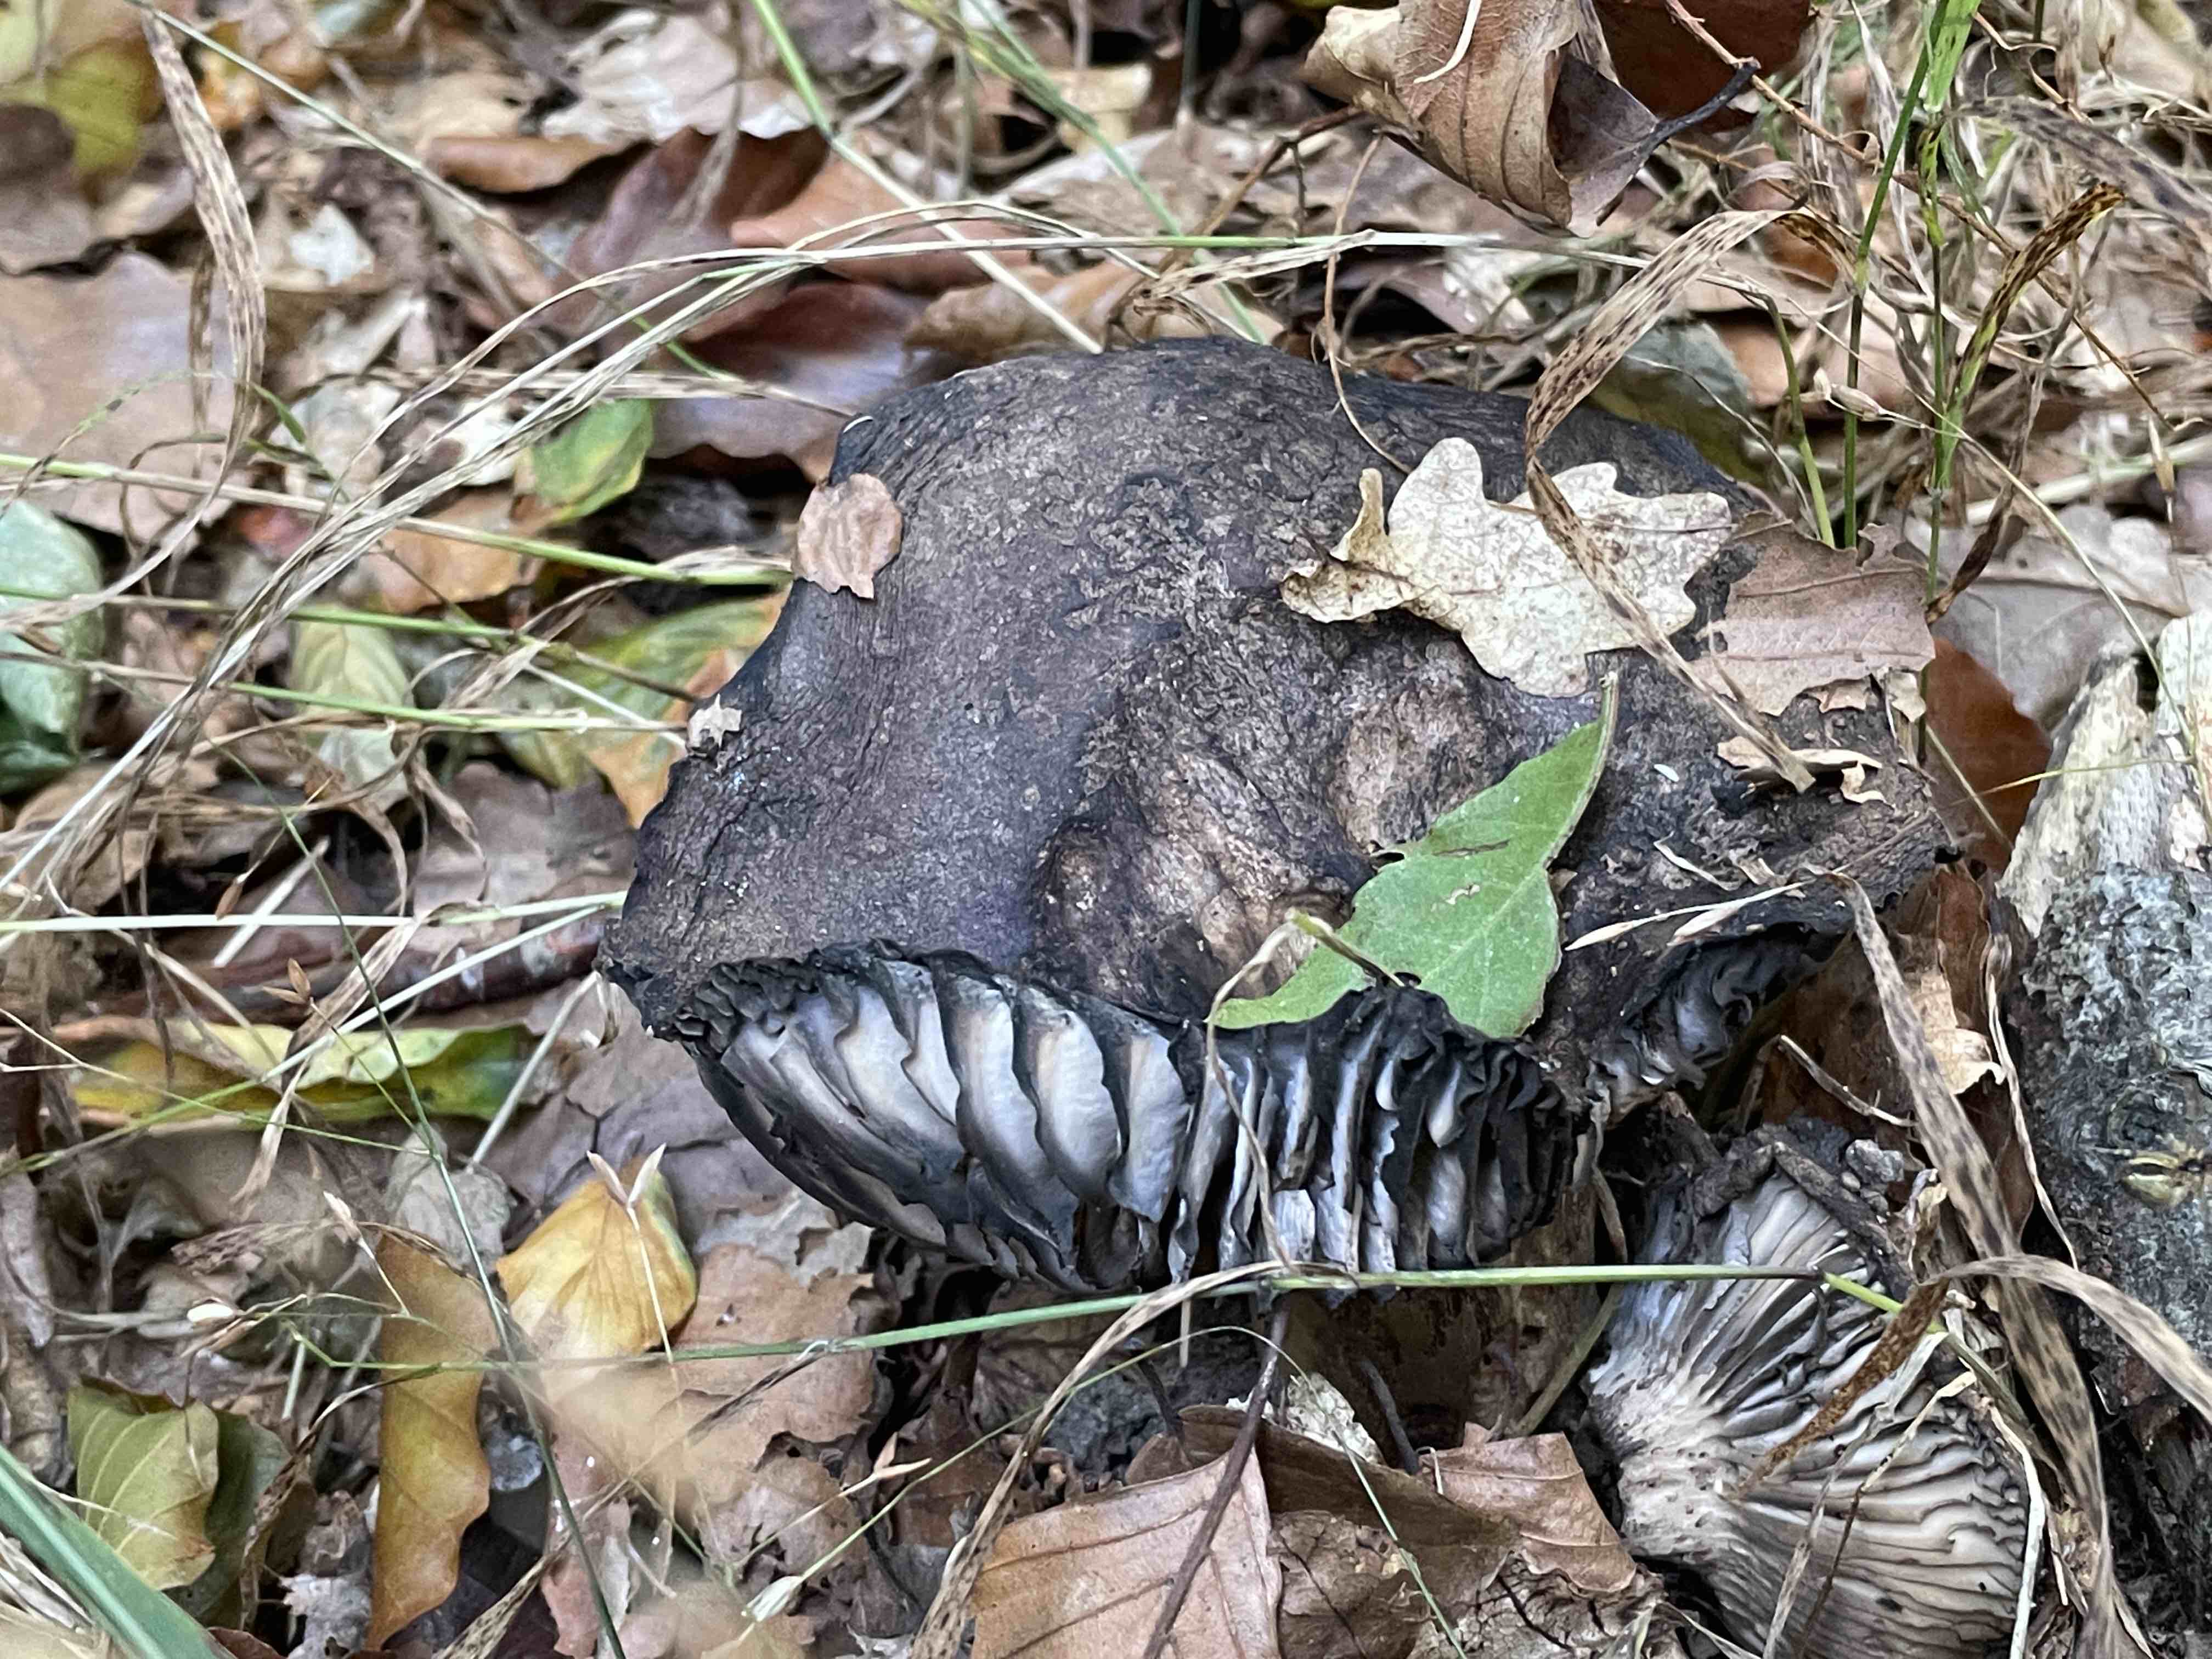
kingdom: Fungi
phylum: Basidiomycota
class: Agaricomycetes
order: Russulales
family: Russulaceae
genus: Russula
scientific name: Russula adusta
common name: sværtende skørhat
